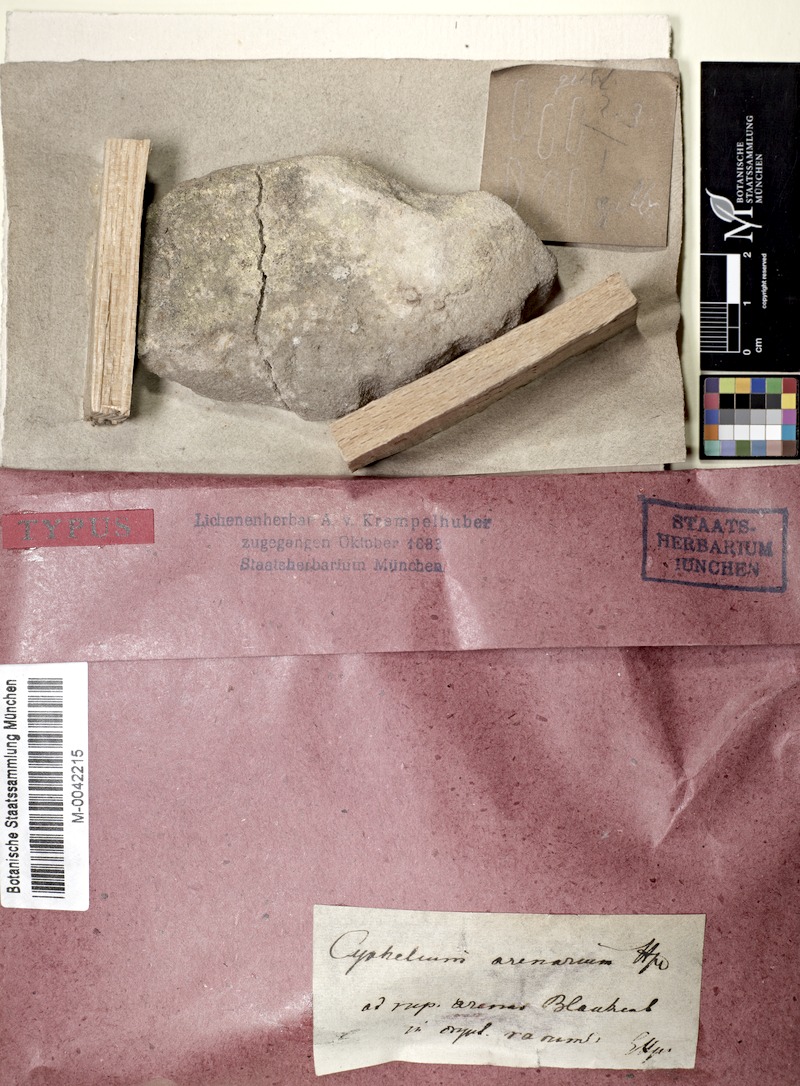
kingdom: Fungi
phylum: Ascomycota
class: Lecanoromycetes
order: Pertusariales
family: Microcaliciaceae
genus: Microcalicium
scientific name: Microcalicium arenarium
